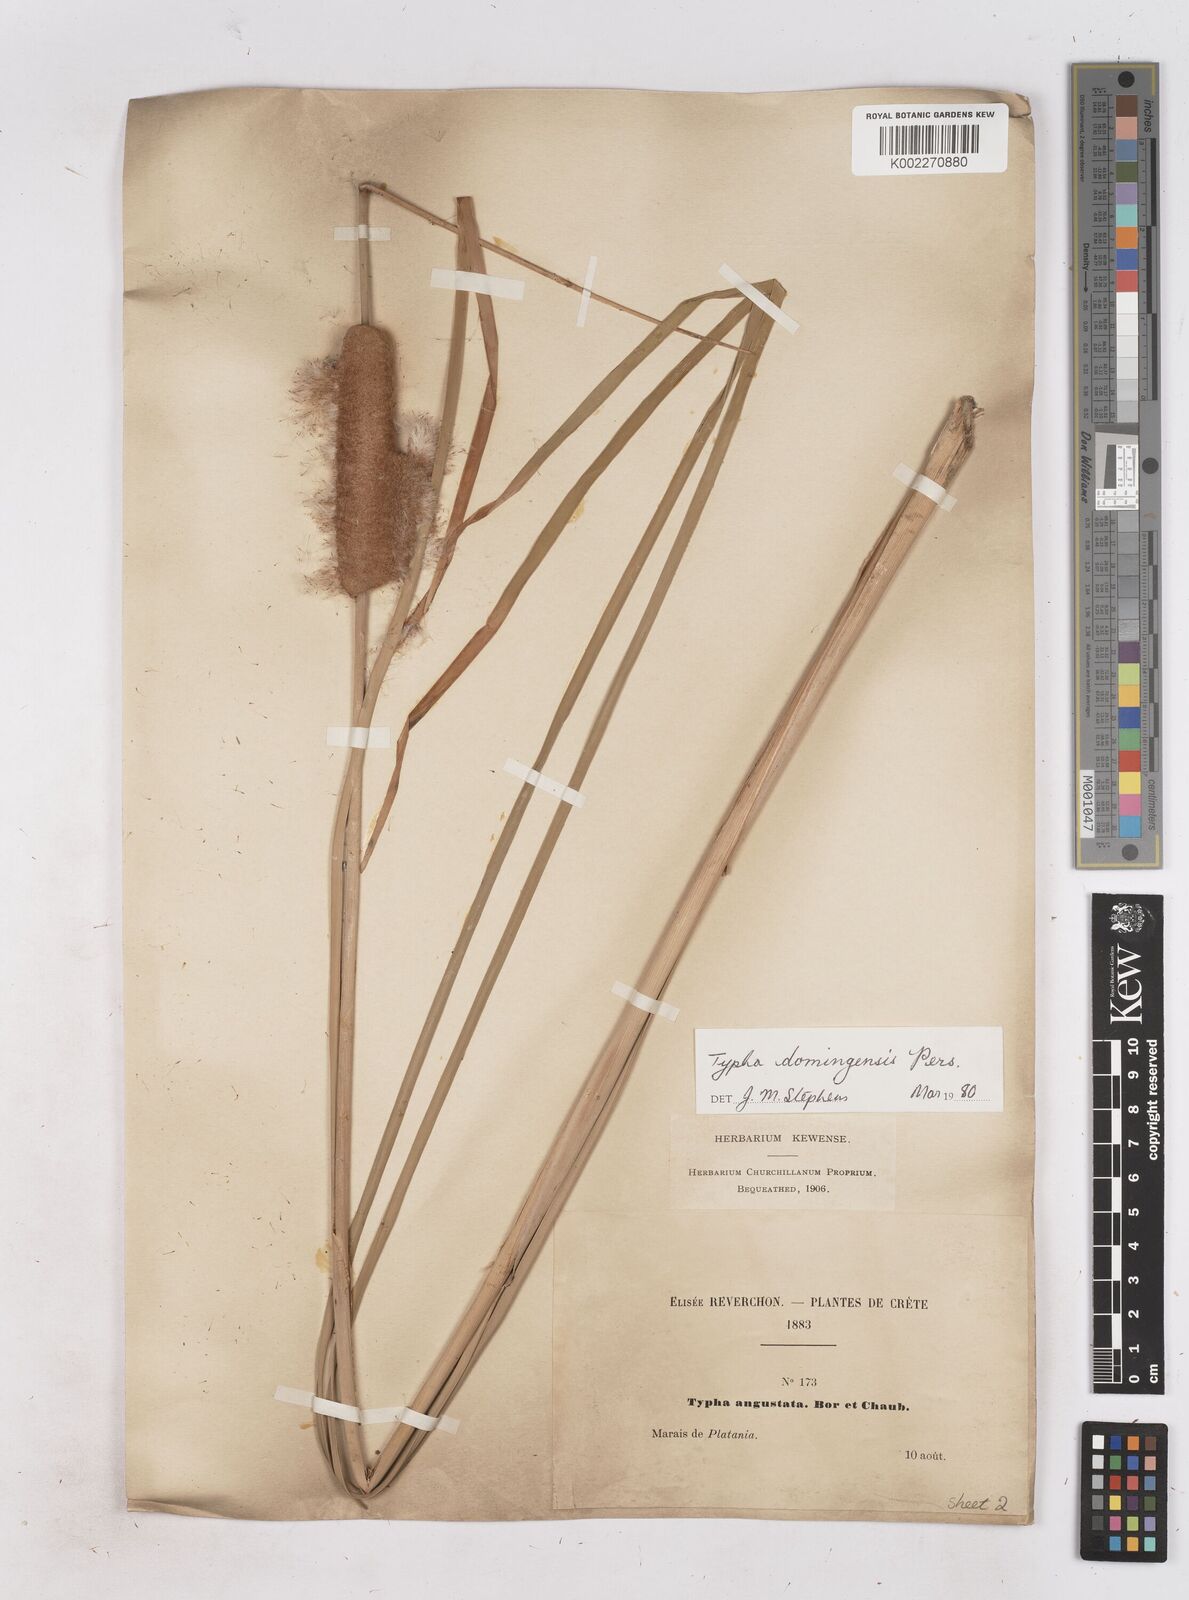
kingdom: Plantae
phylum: Tracheophyta
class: Liliopsida
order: Poales
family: Typhaceae
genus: Typha
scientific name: Typha domingensis
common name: Southern cattail
